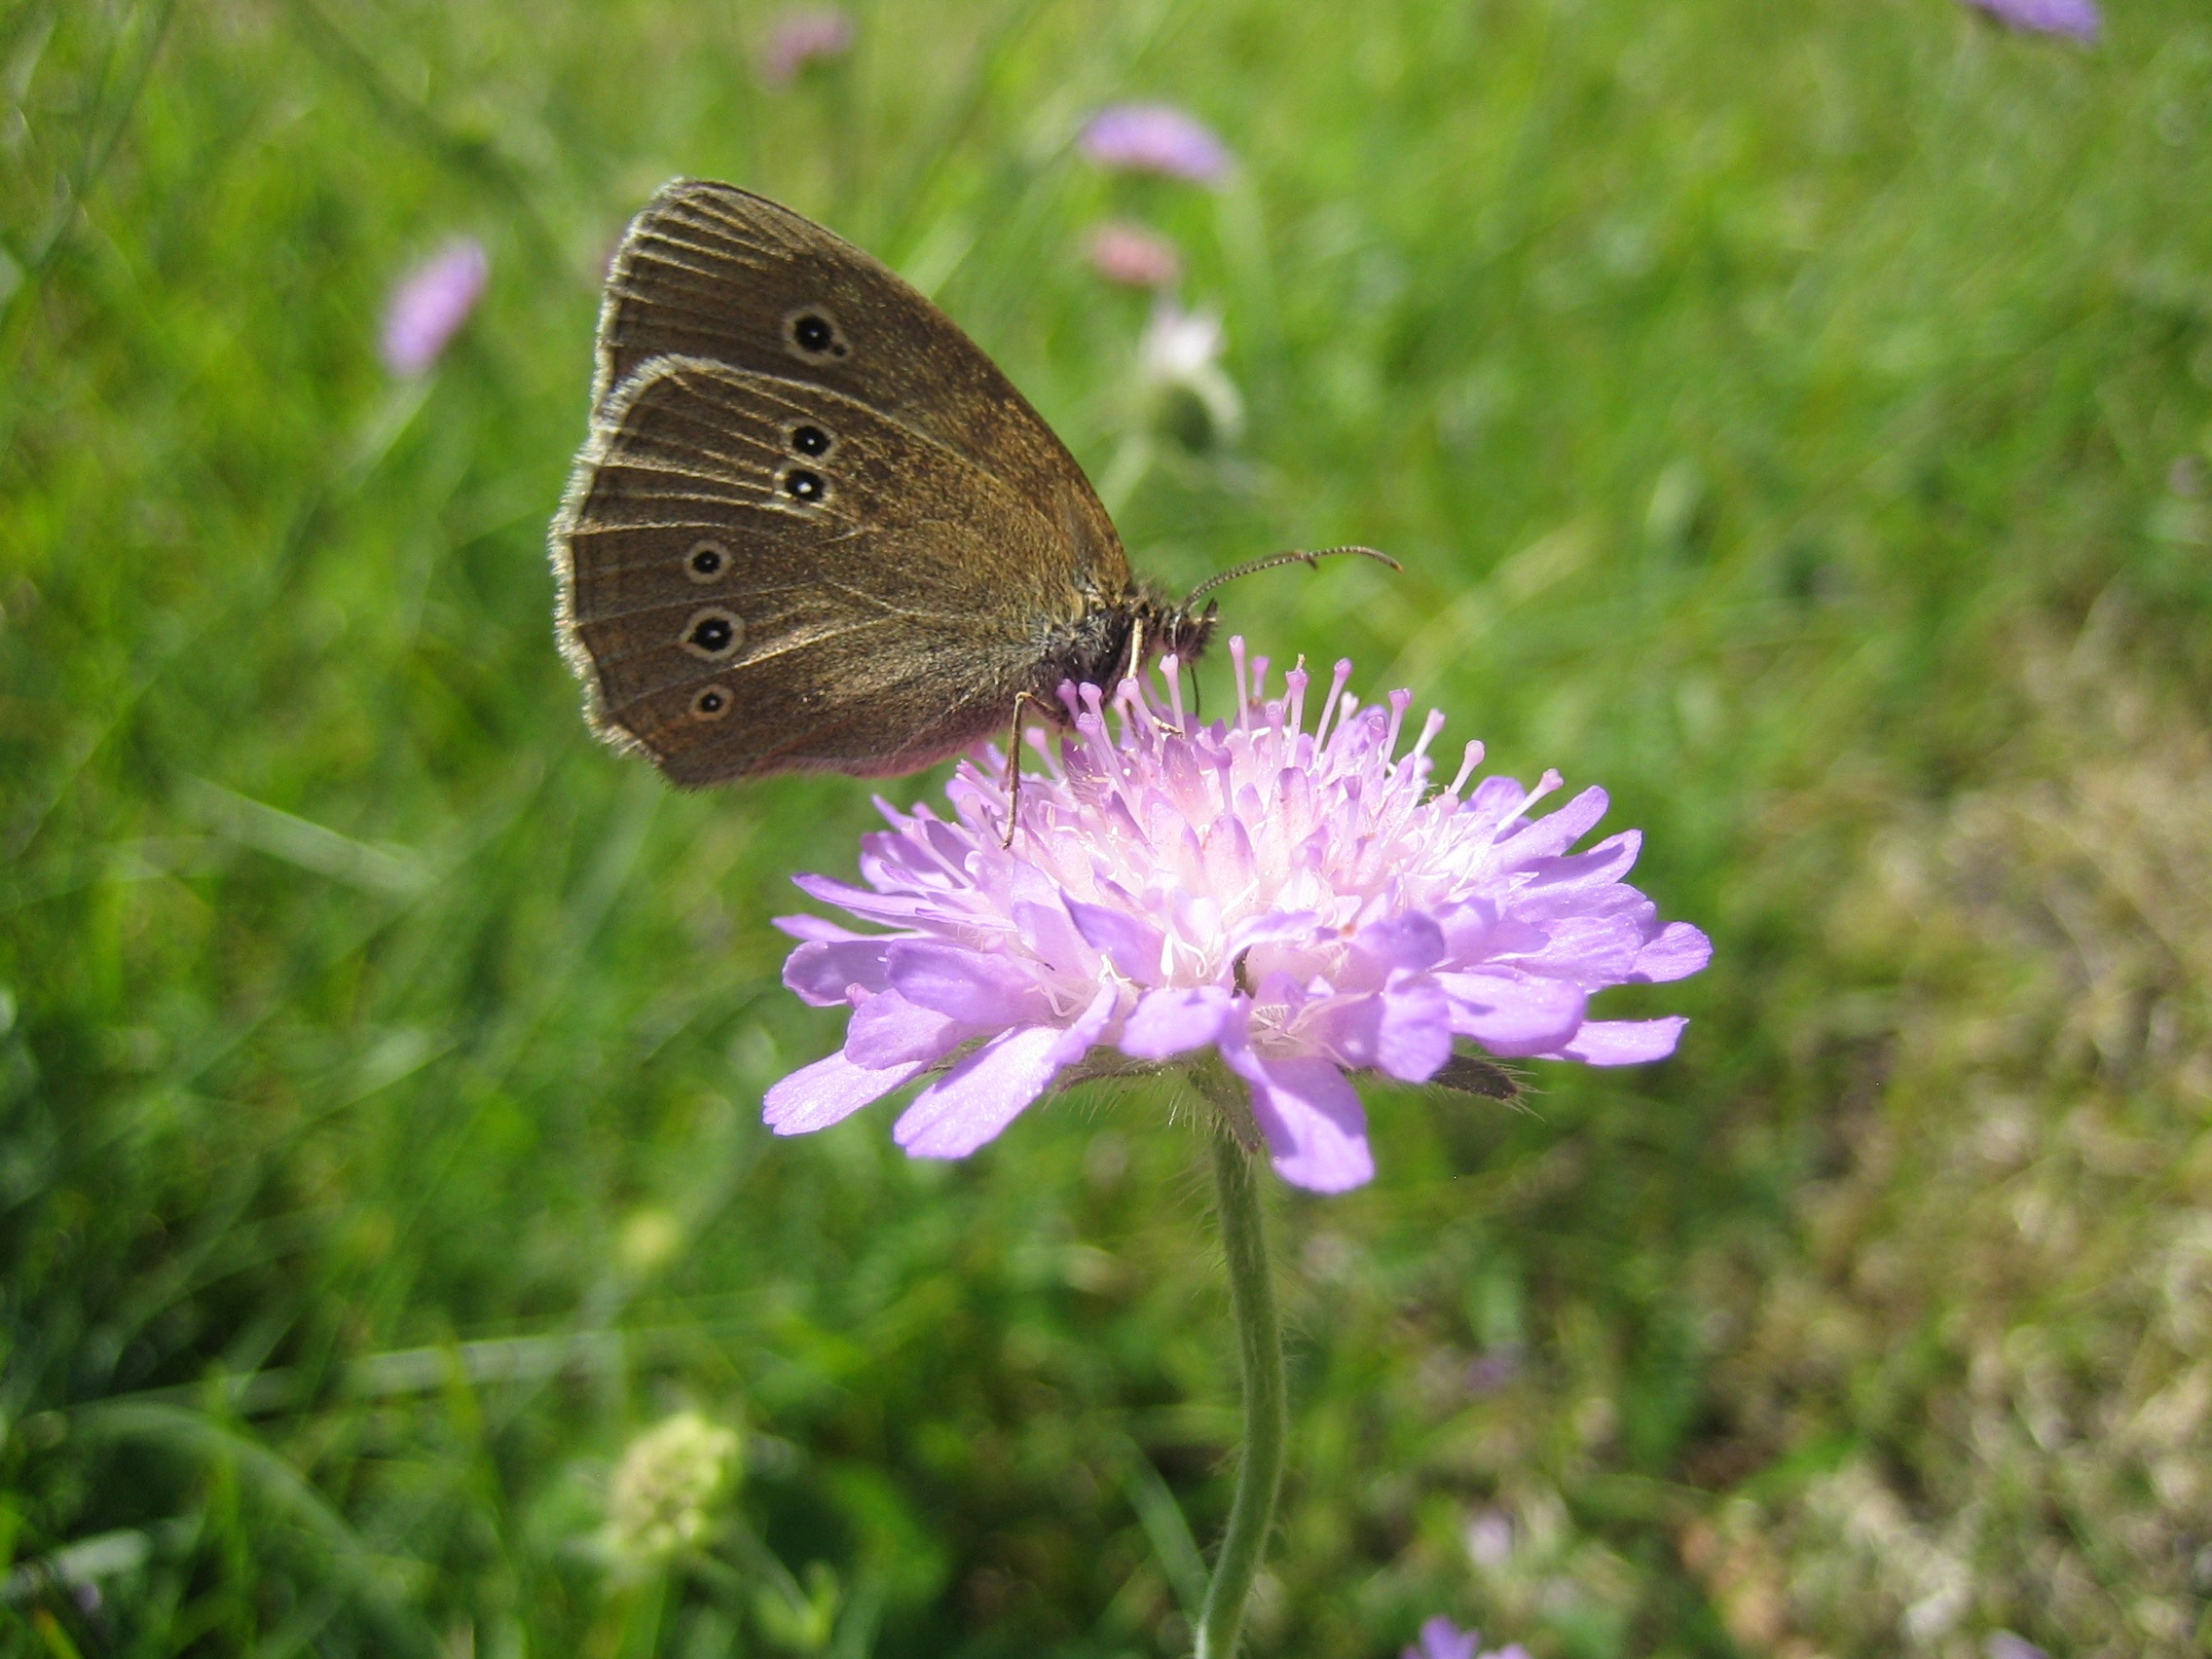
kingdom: Animalia
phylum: Arthropoda
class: Insecta
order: Lepidoptera
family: Nymphalidae
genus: Aphantopus
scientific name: Aphantopus hyperantus
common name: Engrandøje
